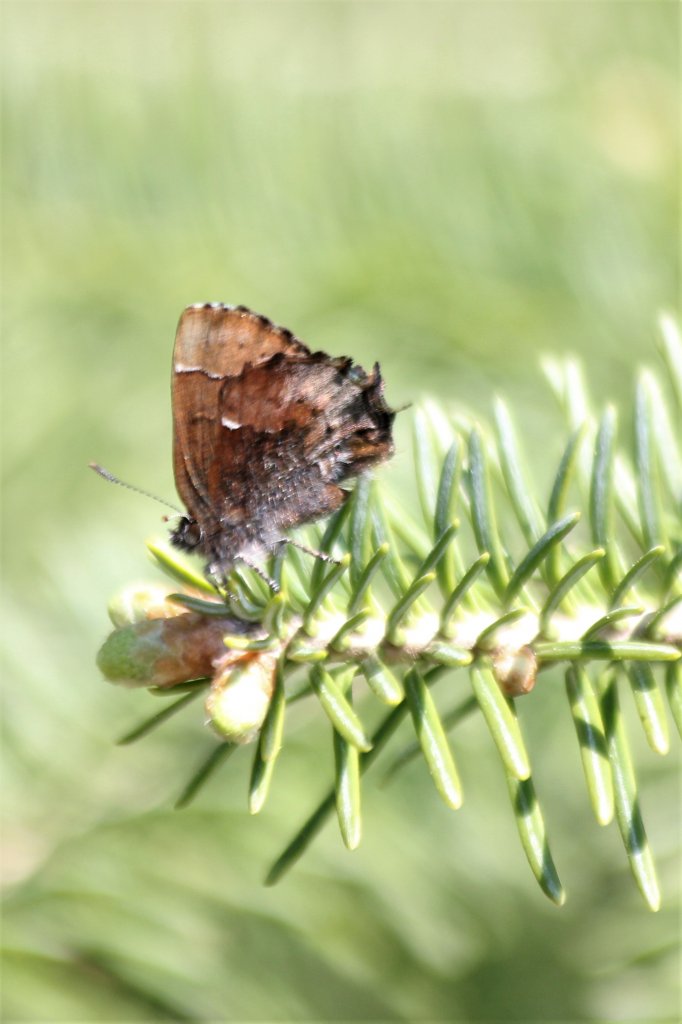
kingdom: Animalia
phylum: Arthropoda
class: Insecta
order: Lepidoptera
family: Lycaenidae
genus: Incisalia
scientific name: Incisalia henrici
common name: Henry's Elfin
